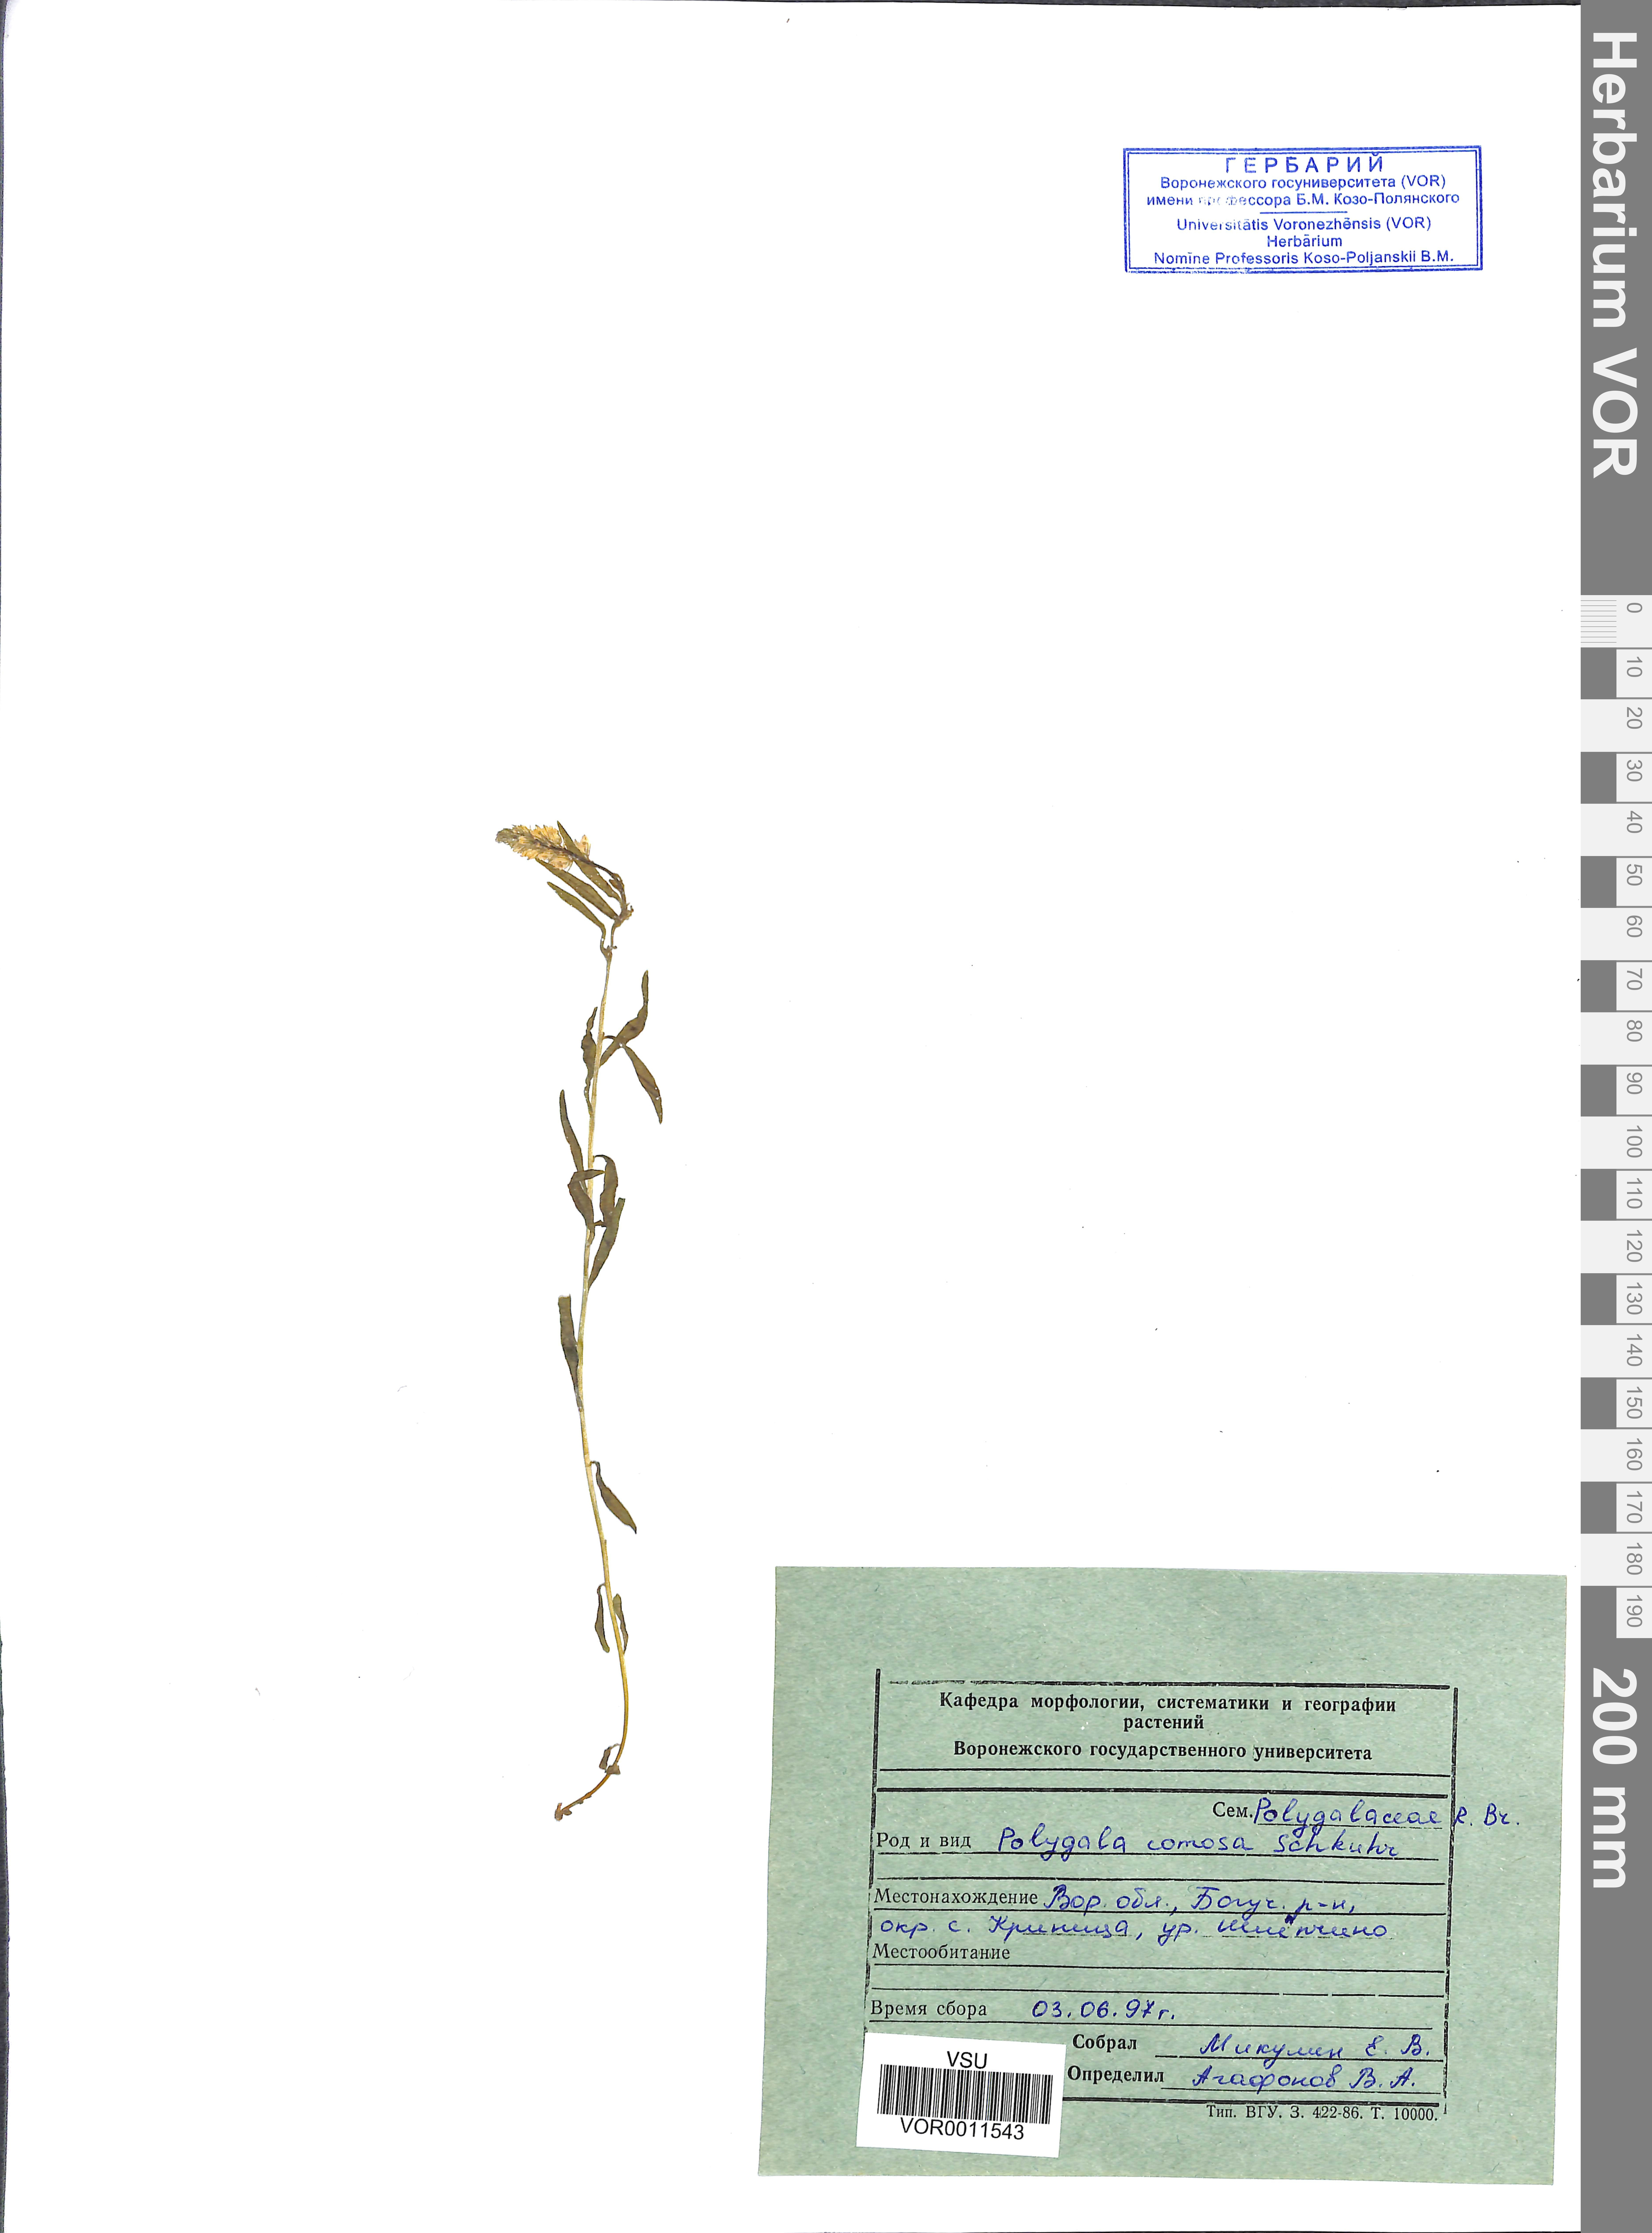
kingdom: Plantae
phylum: Tracheophyta
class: Magnoliopsida
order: Fabales
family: Polygalaceae
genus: Polygala
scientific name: Polygala comosa
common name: Tufted milkwort
